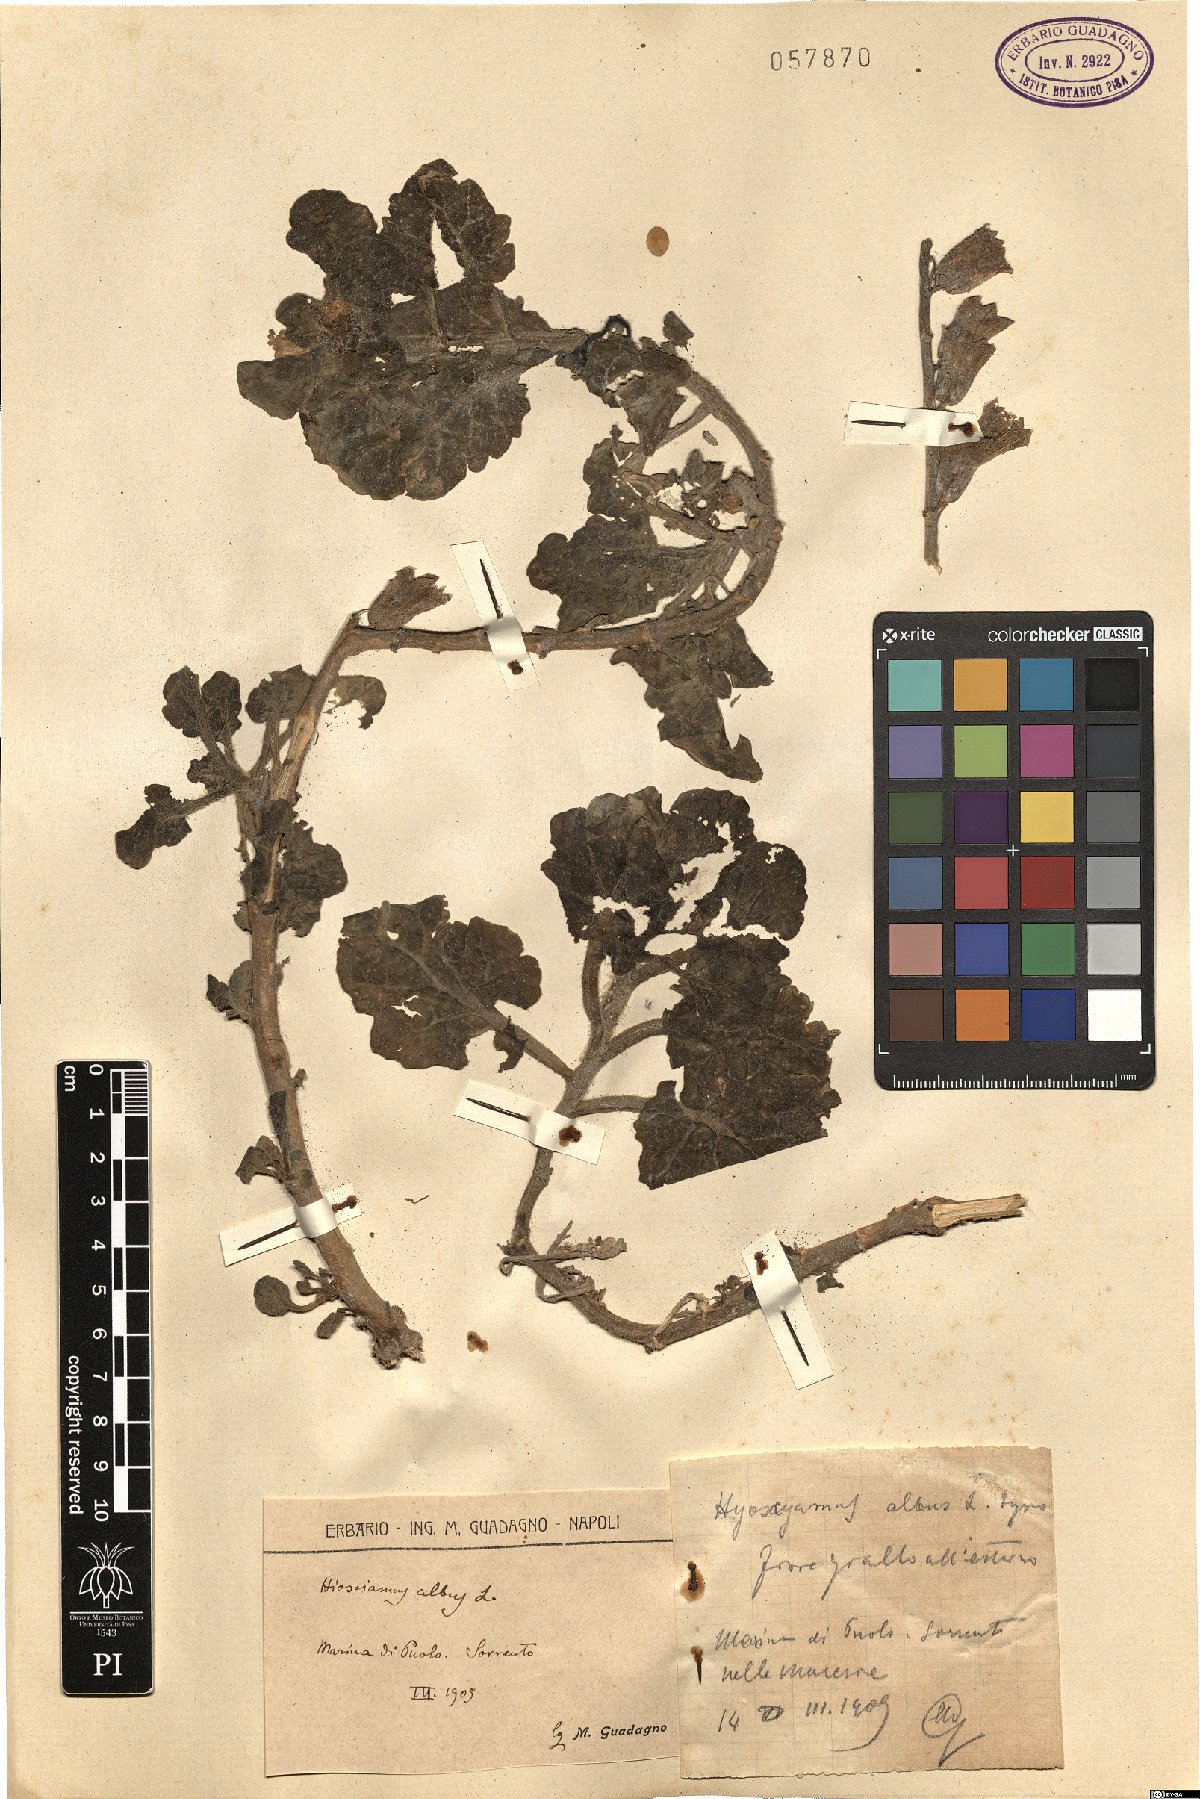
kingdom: Plantae
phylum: Tracheophyta
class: Magnoliopsida
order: Solanales
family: Solanaceae
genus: Hyoscyamus
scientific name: Hyoscyamus albus
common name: White henbane
